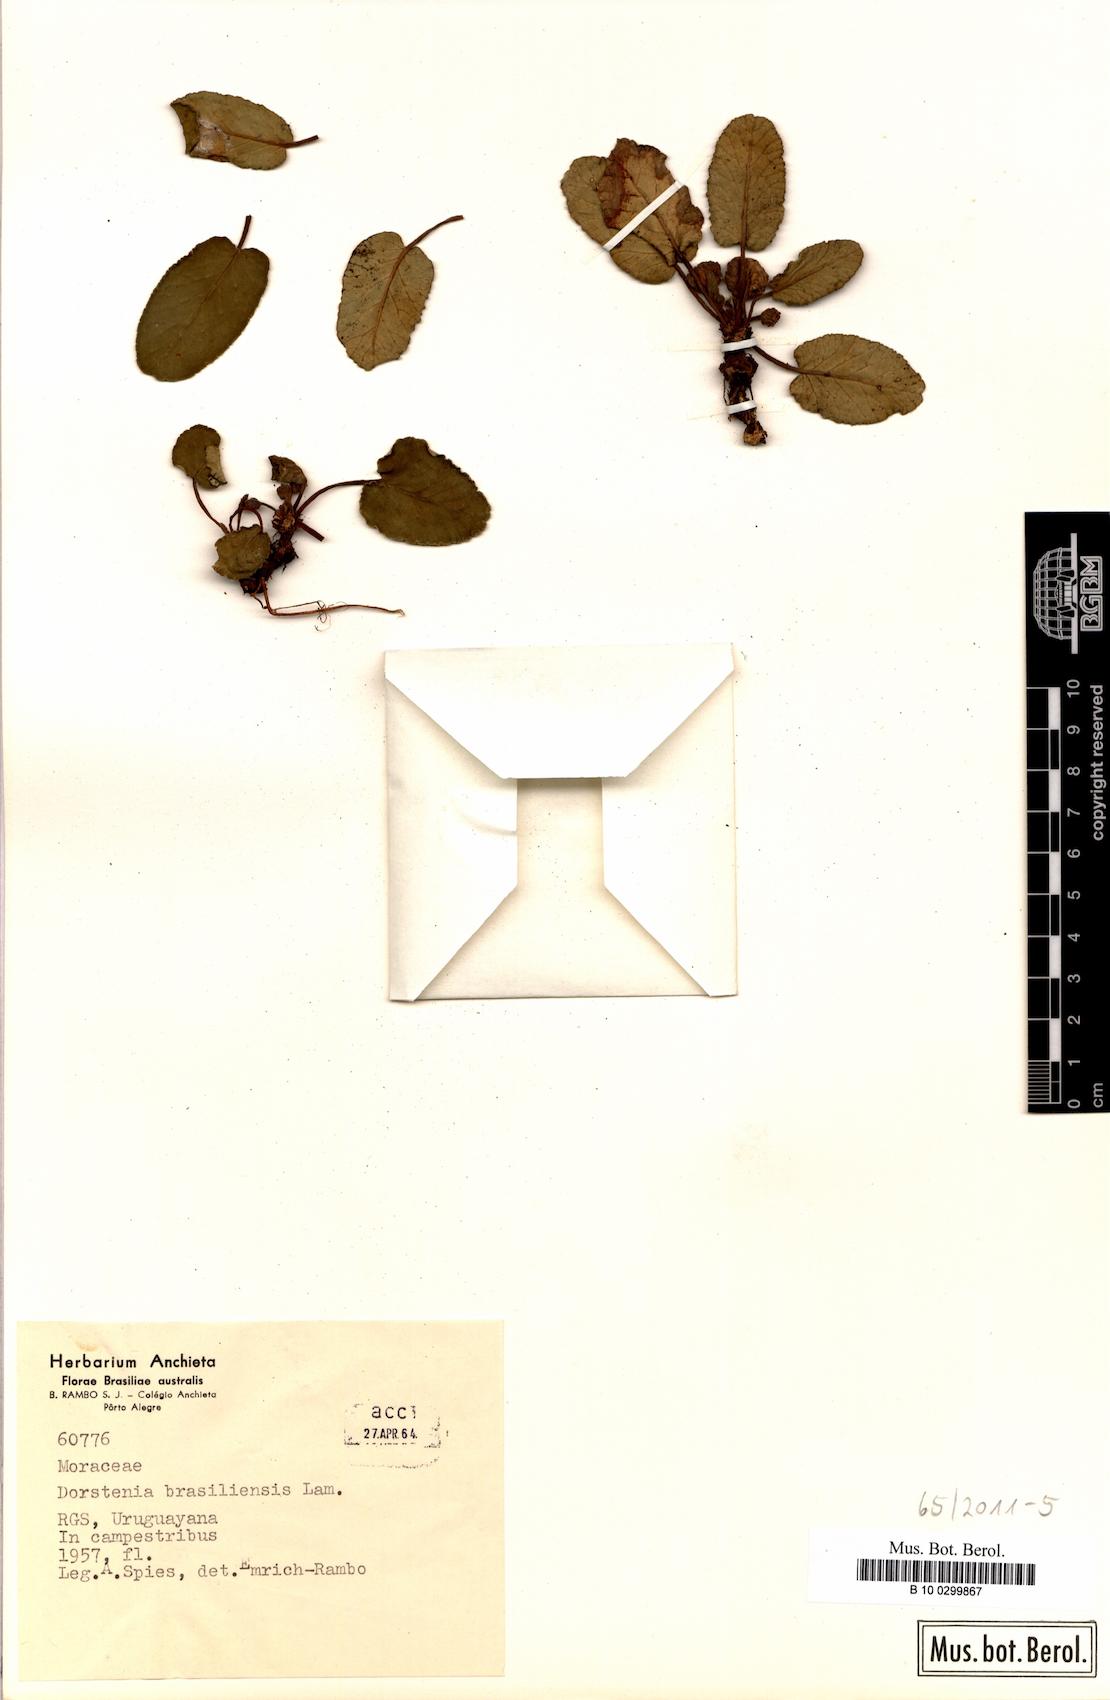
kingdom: Plantae
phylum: Tracheophyta
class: Magnoliopsida
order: Rosales
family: Moraceae
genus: Dorstenia
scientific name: Dorstenia brasiliensis
